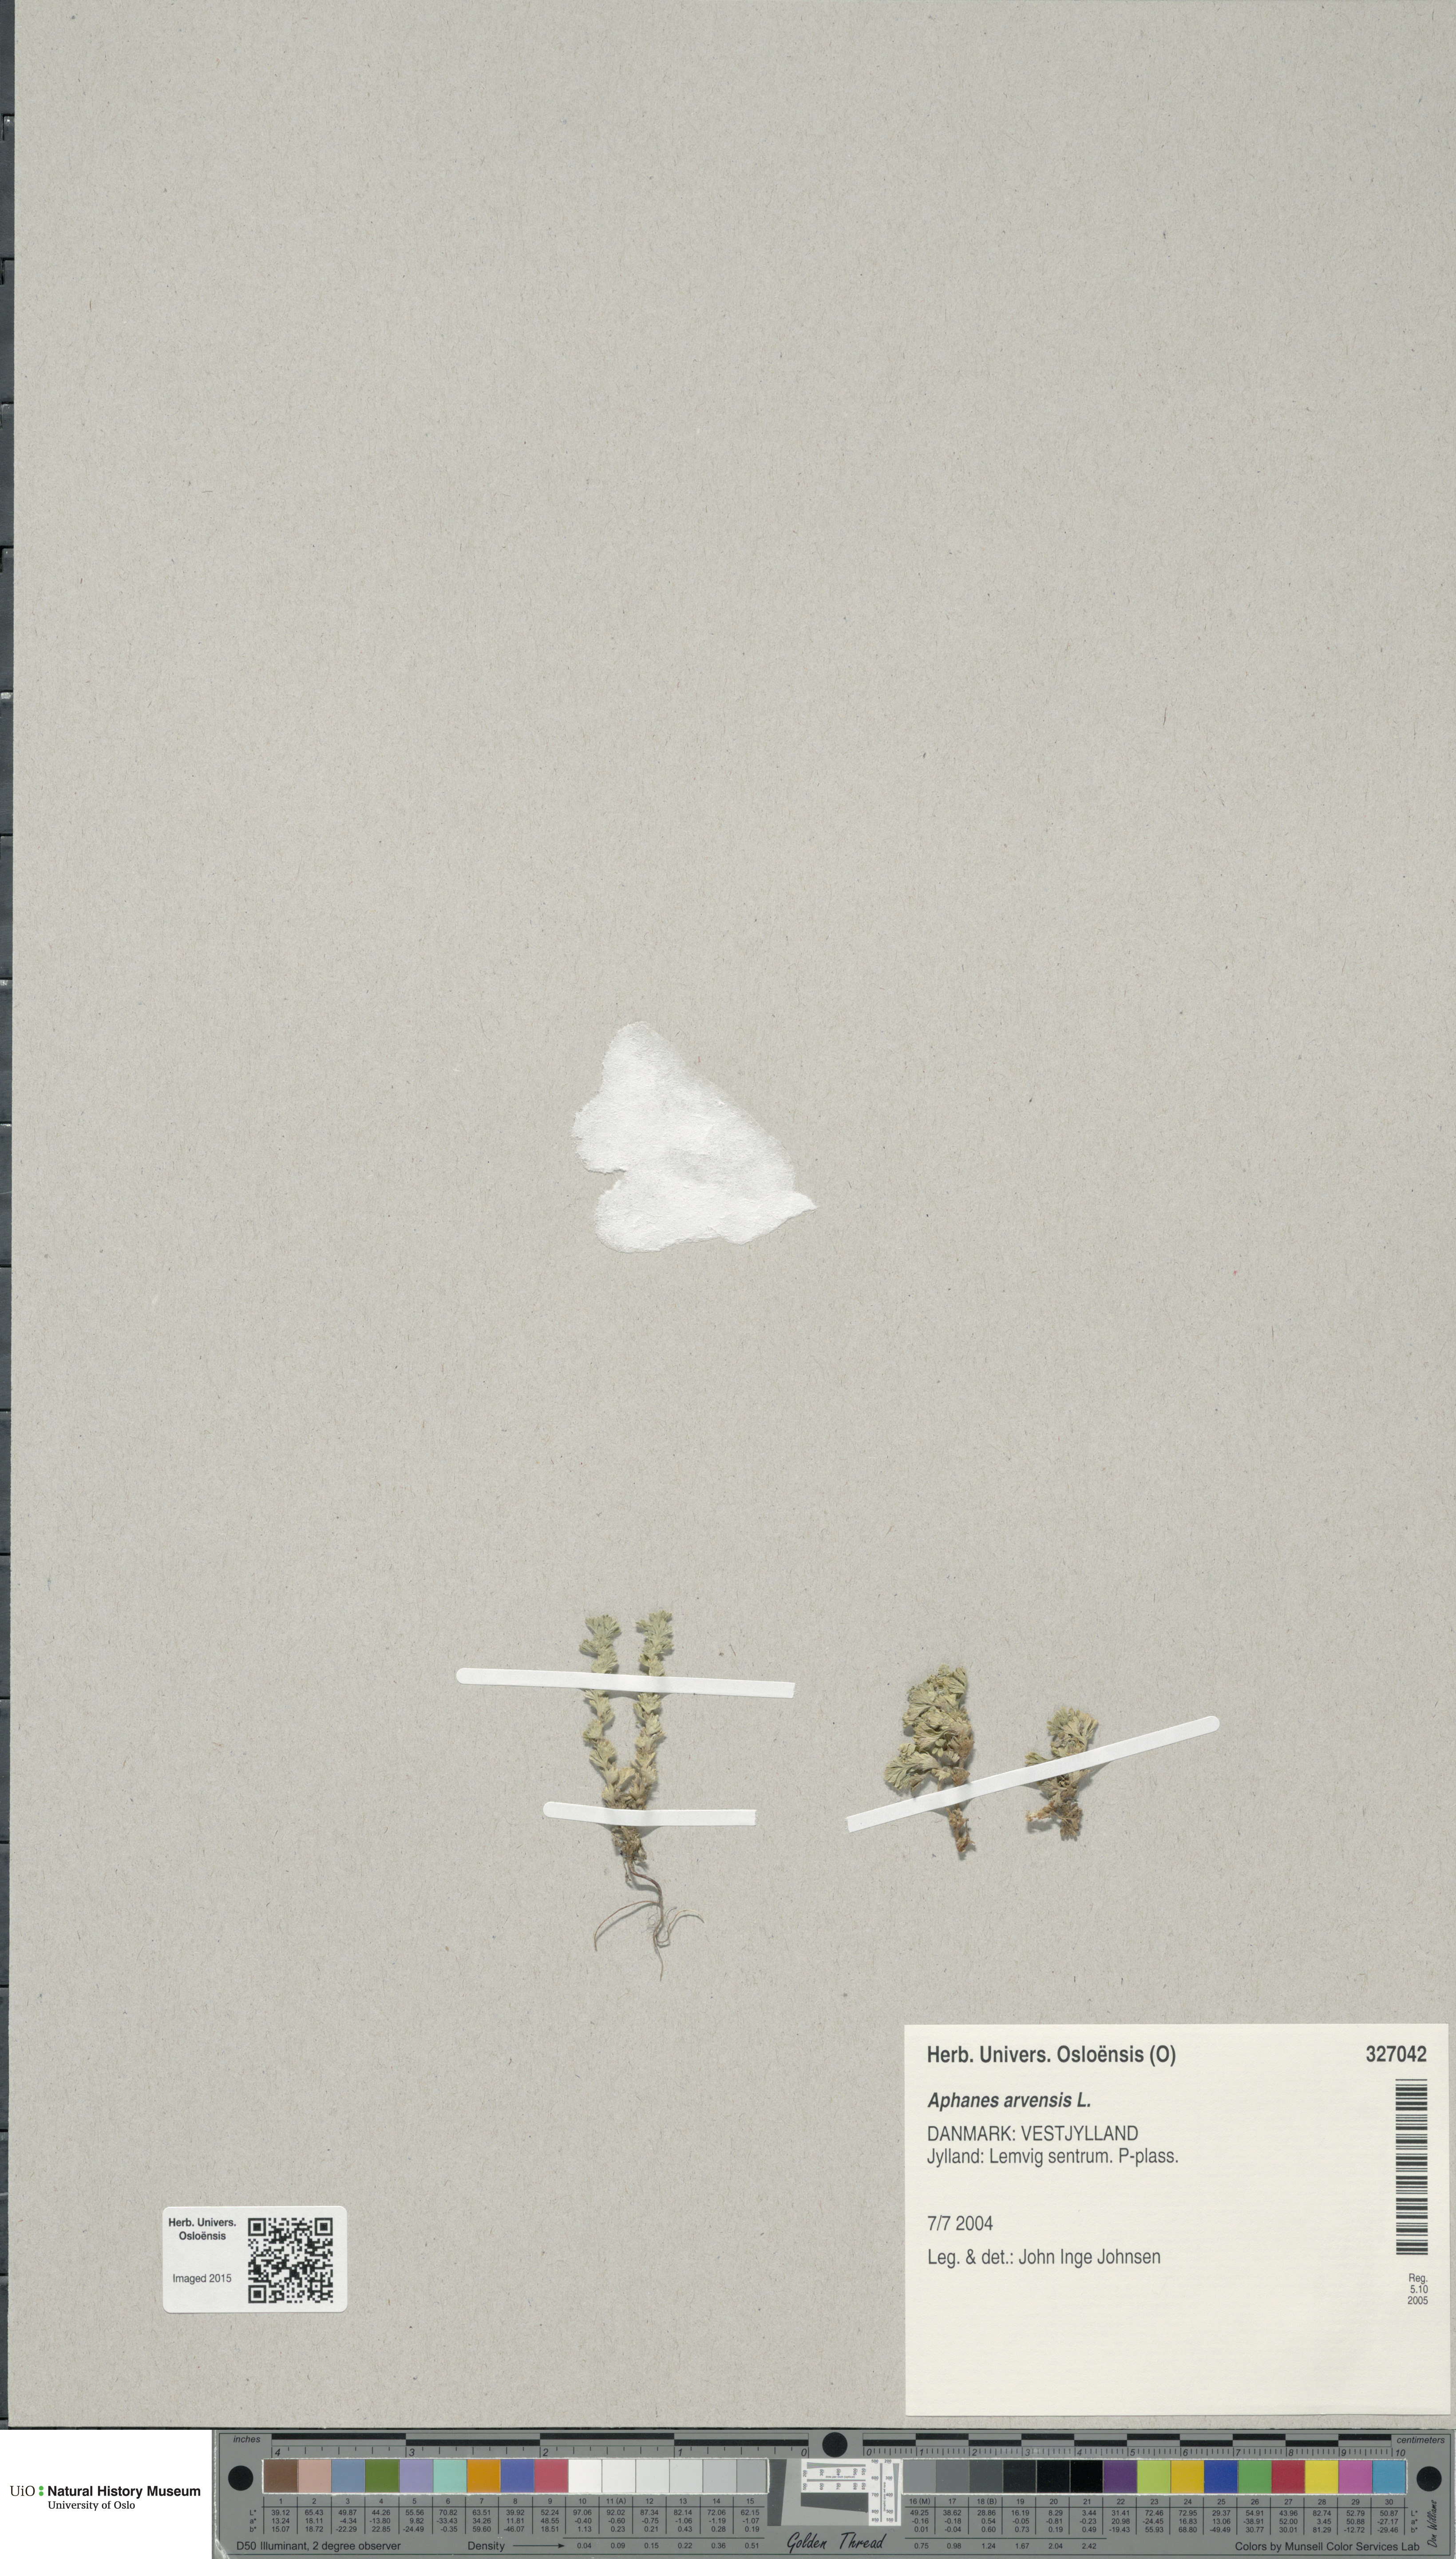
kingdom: Plantae
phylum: Tracheophyta
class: Magnoliopsida
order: Rosales
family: Rosaceae
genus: Aphanes
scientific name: Aphanes arvensis
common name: Parsley-piert
